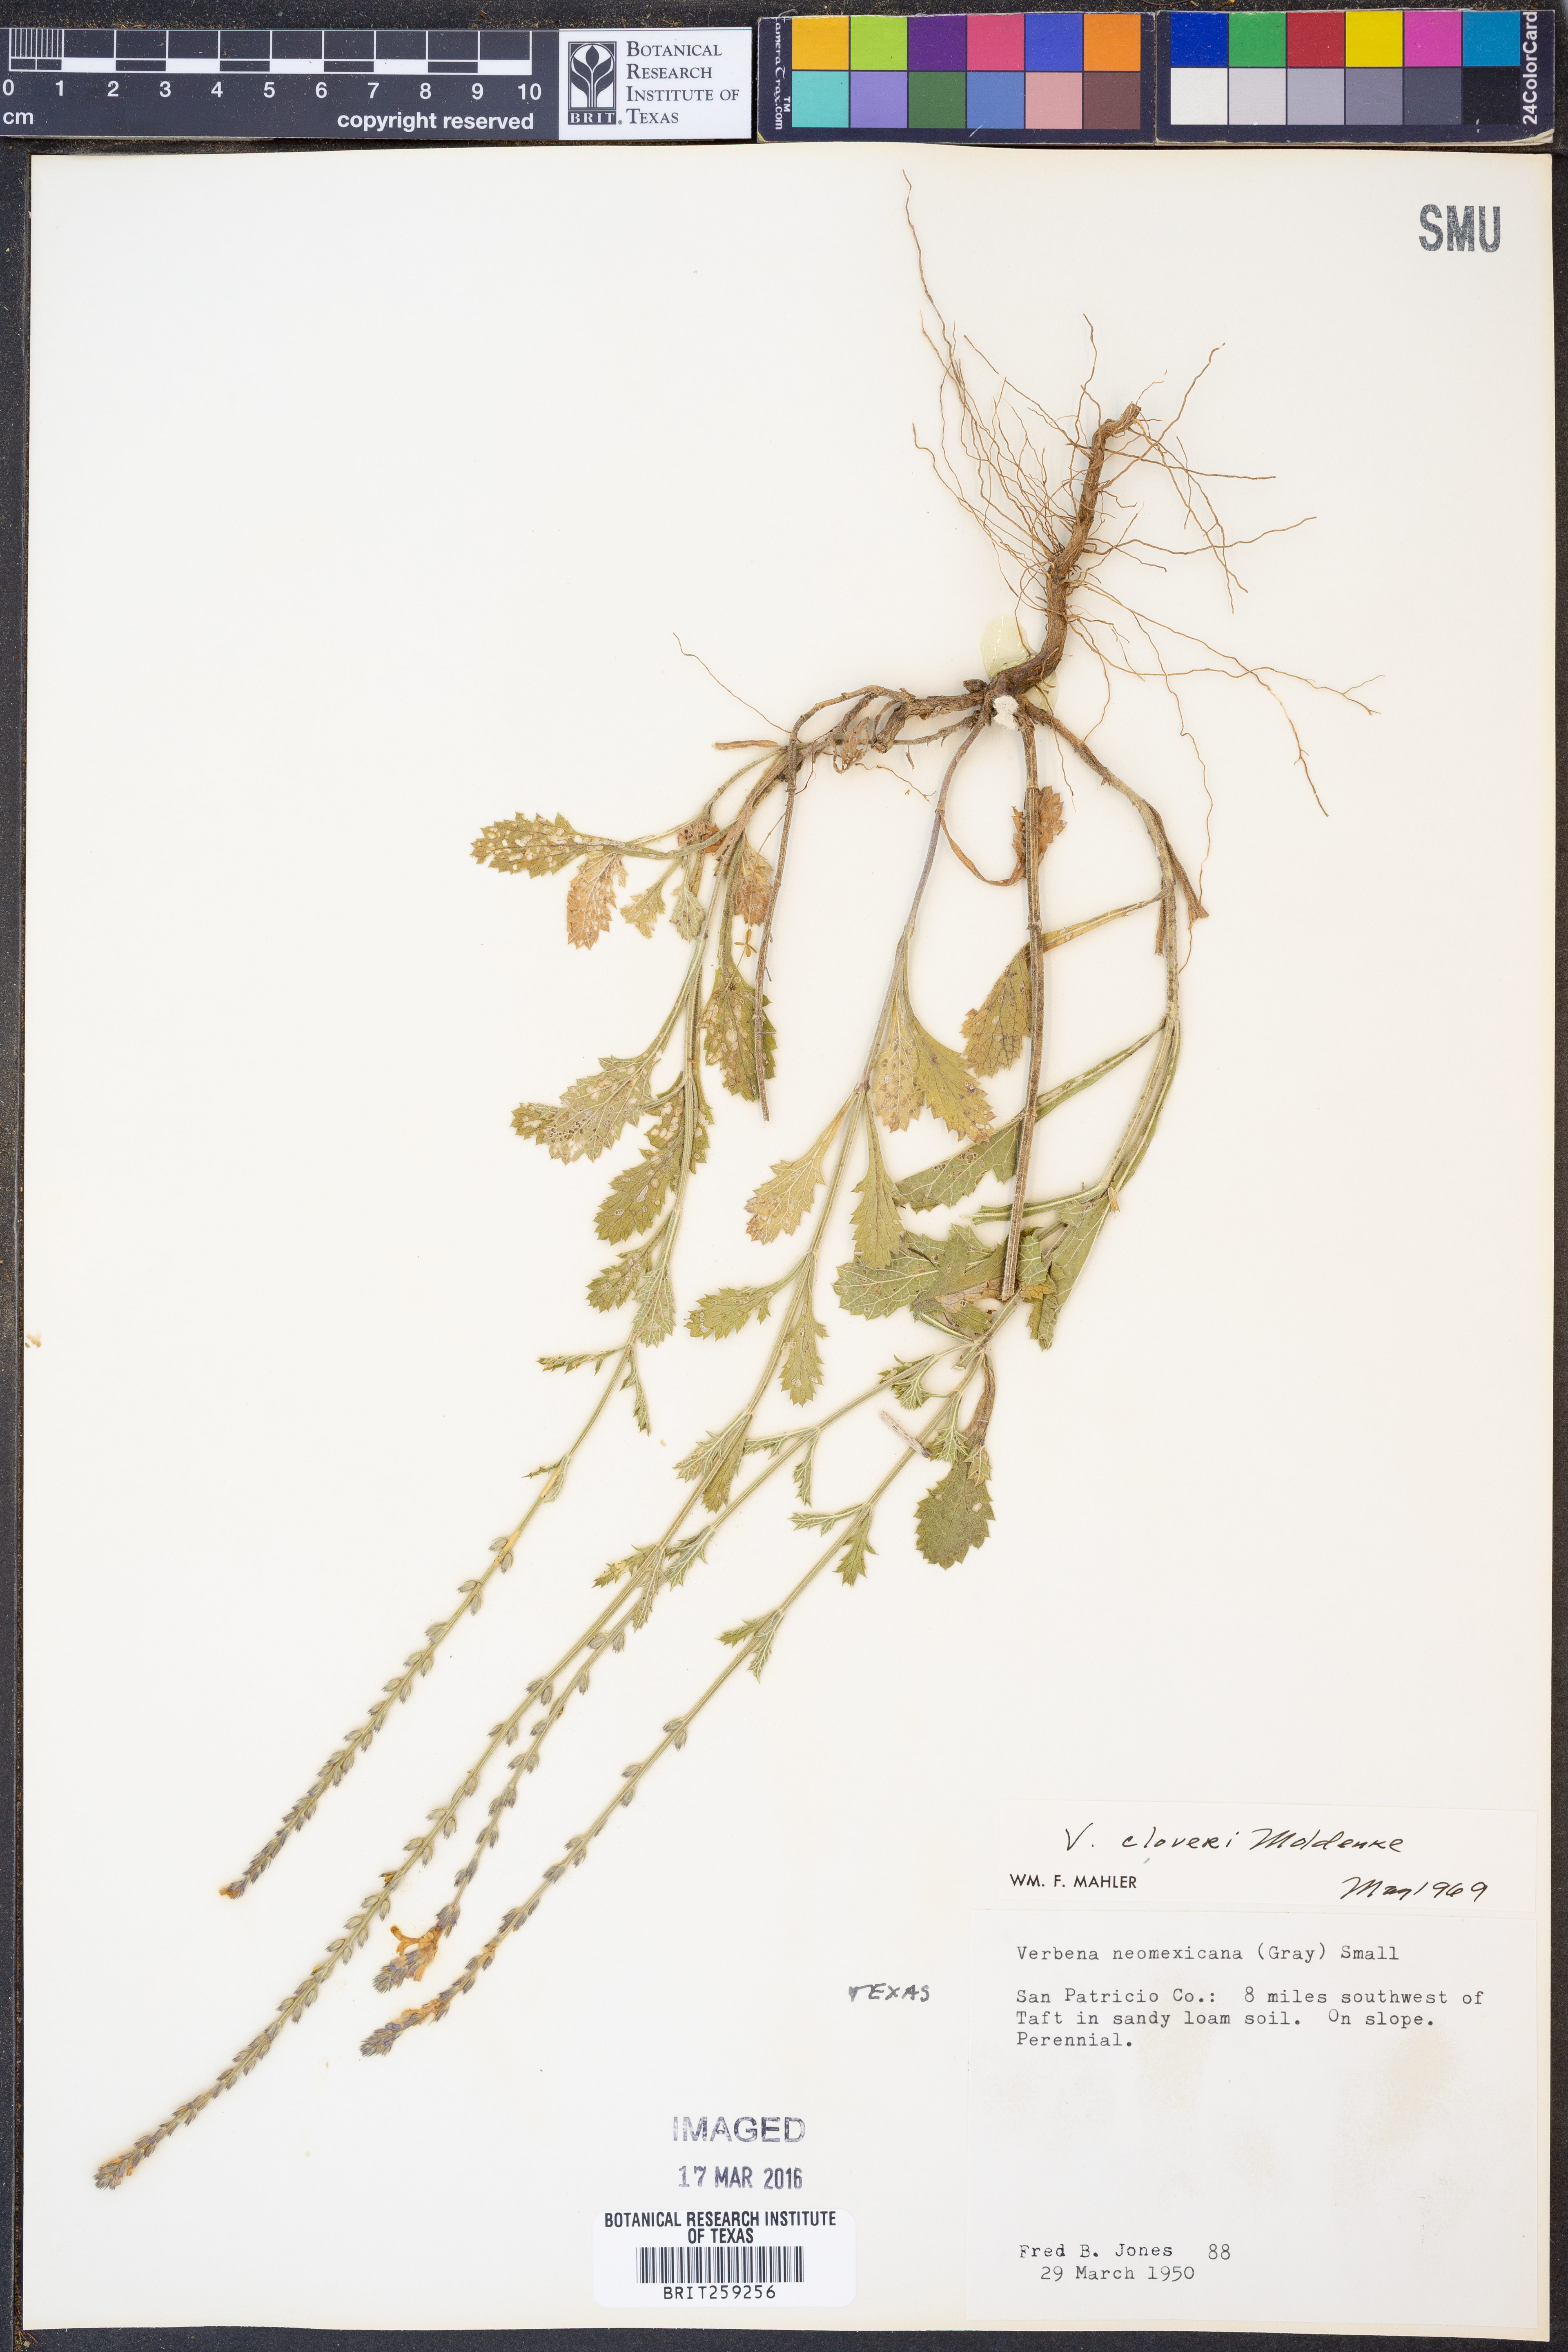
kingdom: Plantae
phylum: Tracheophyta
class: Magnoliopsida
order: Lamiales
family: Verbenaceae
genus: Verbena
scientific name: Verbena cloveri
